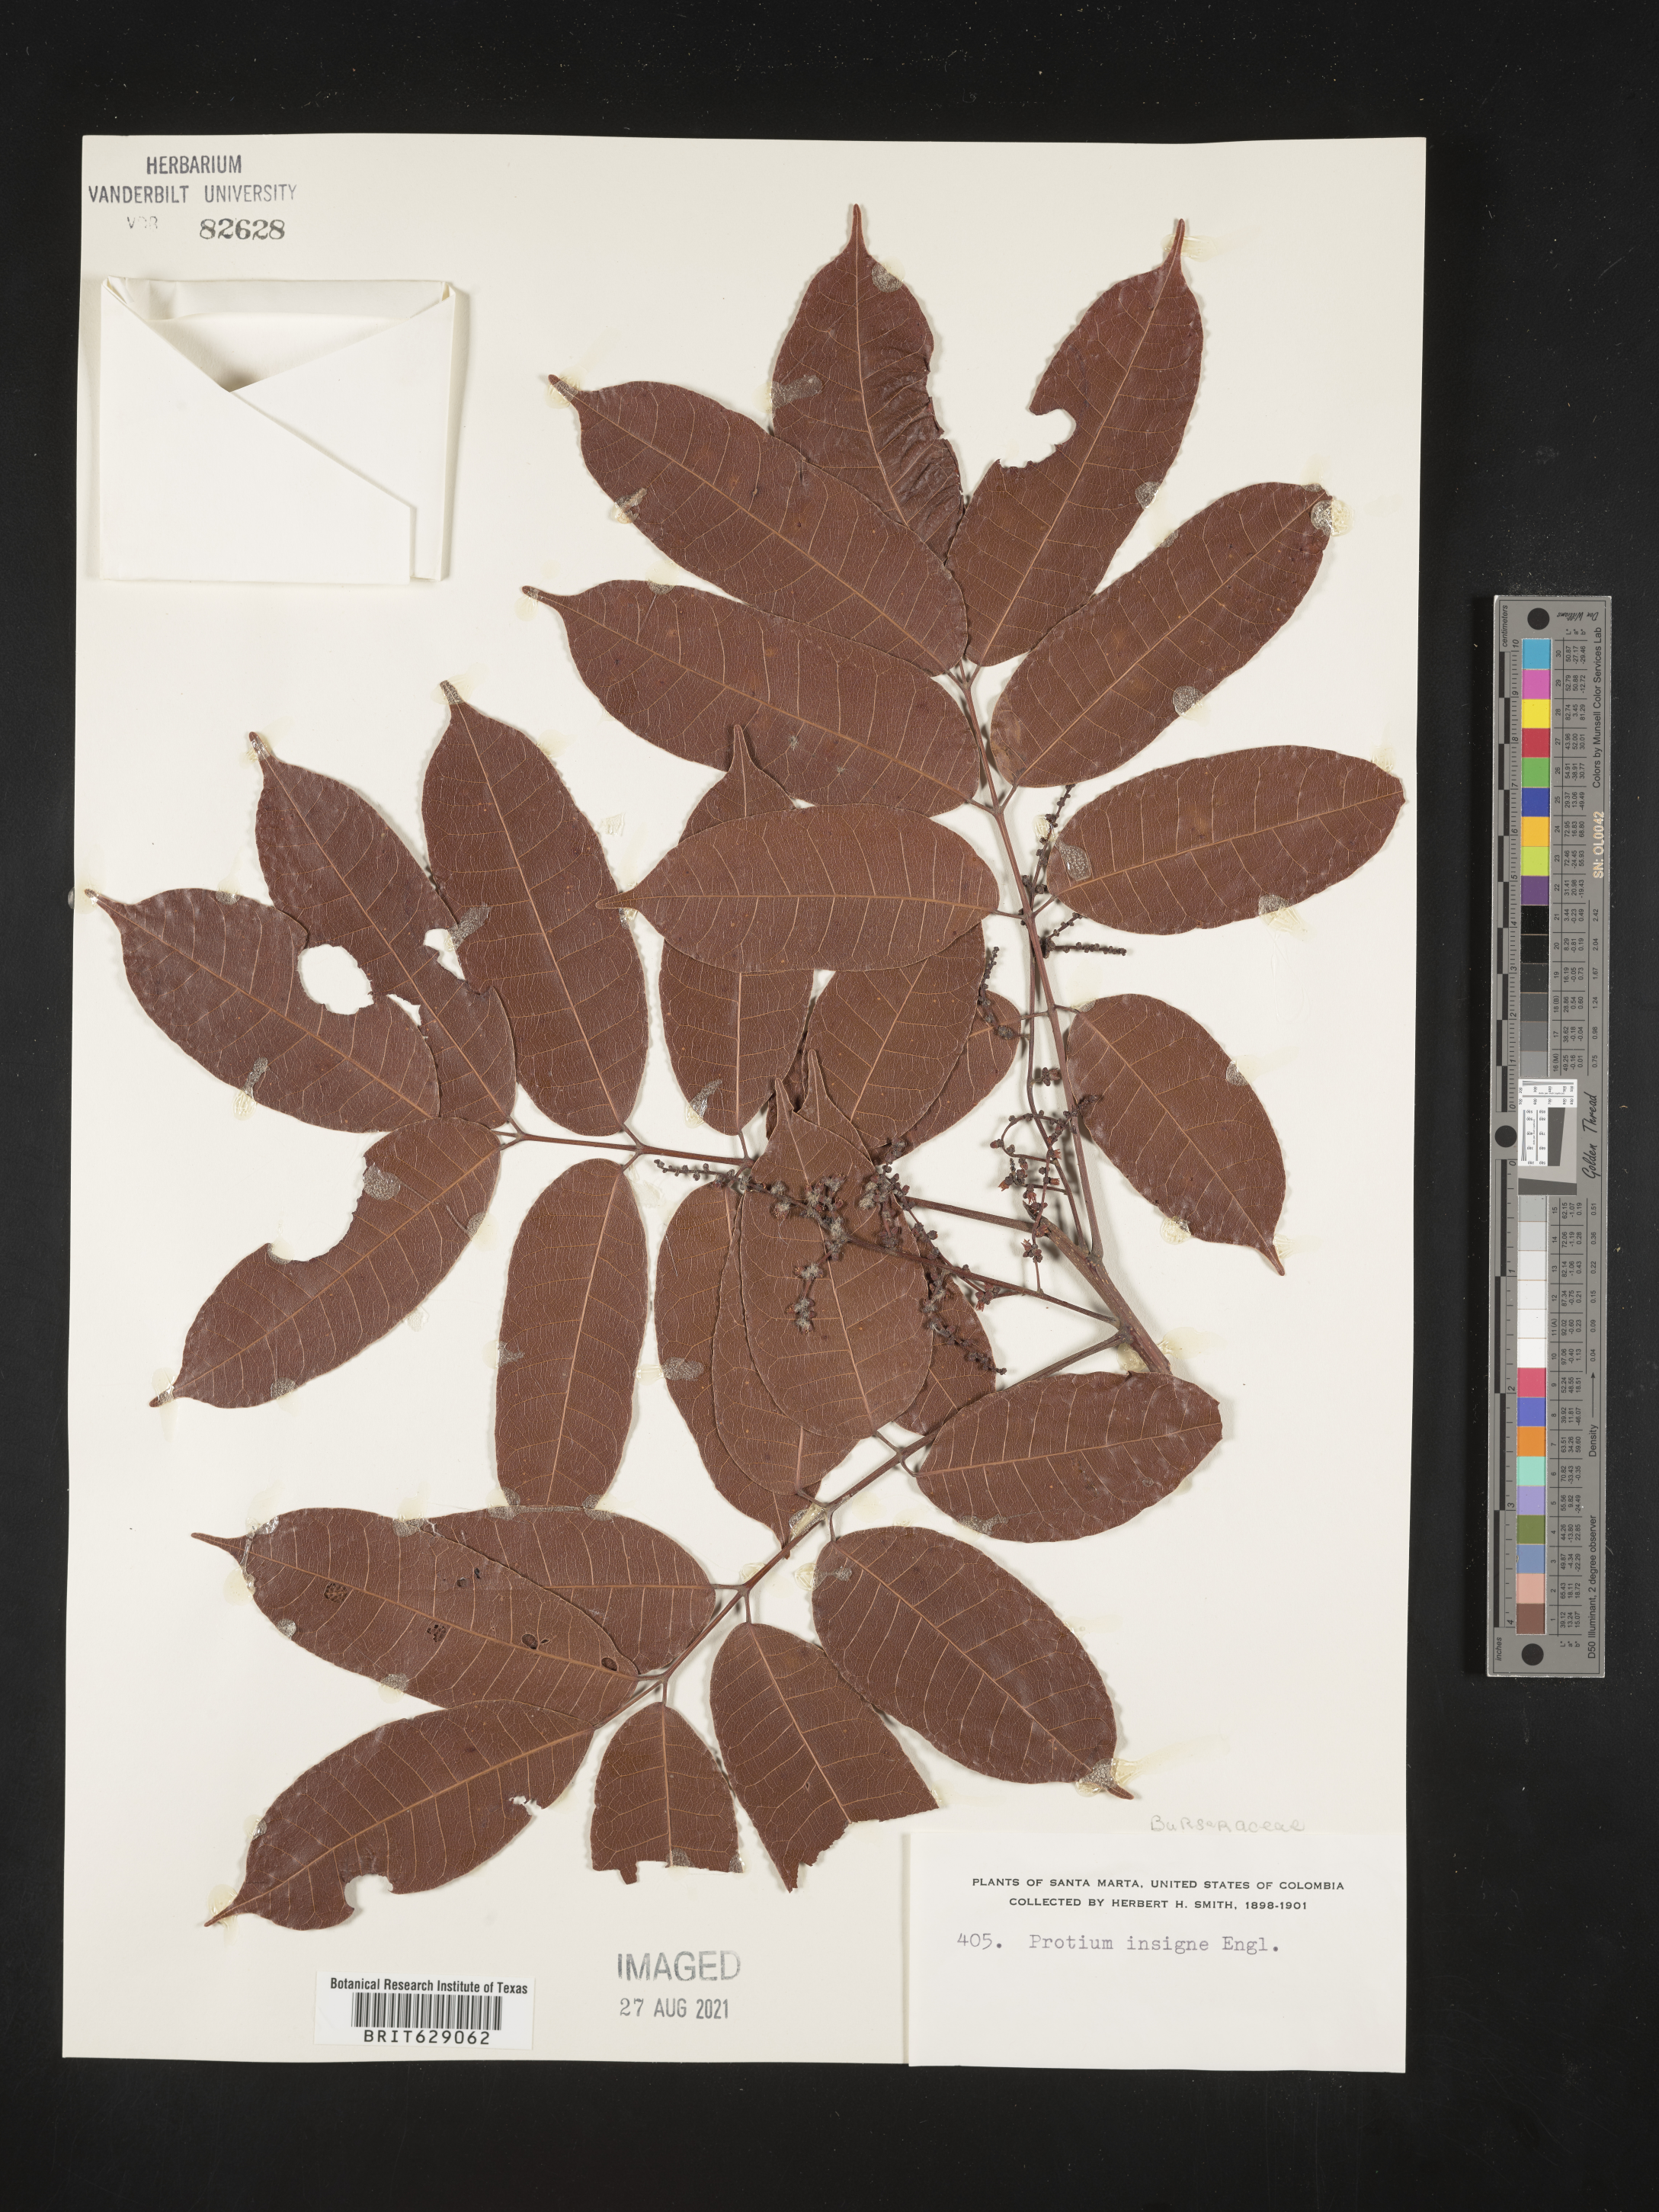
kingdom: Plantae
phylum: Tracheophyta
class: Magnoliopsida
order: Sapindales
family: Burseraceae
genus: Protium
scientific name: Protium sagotianum
